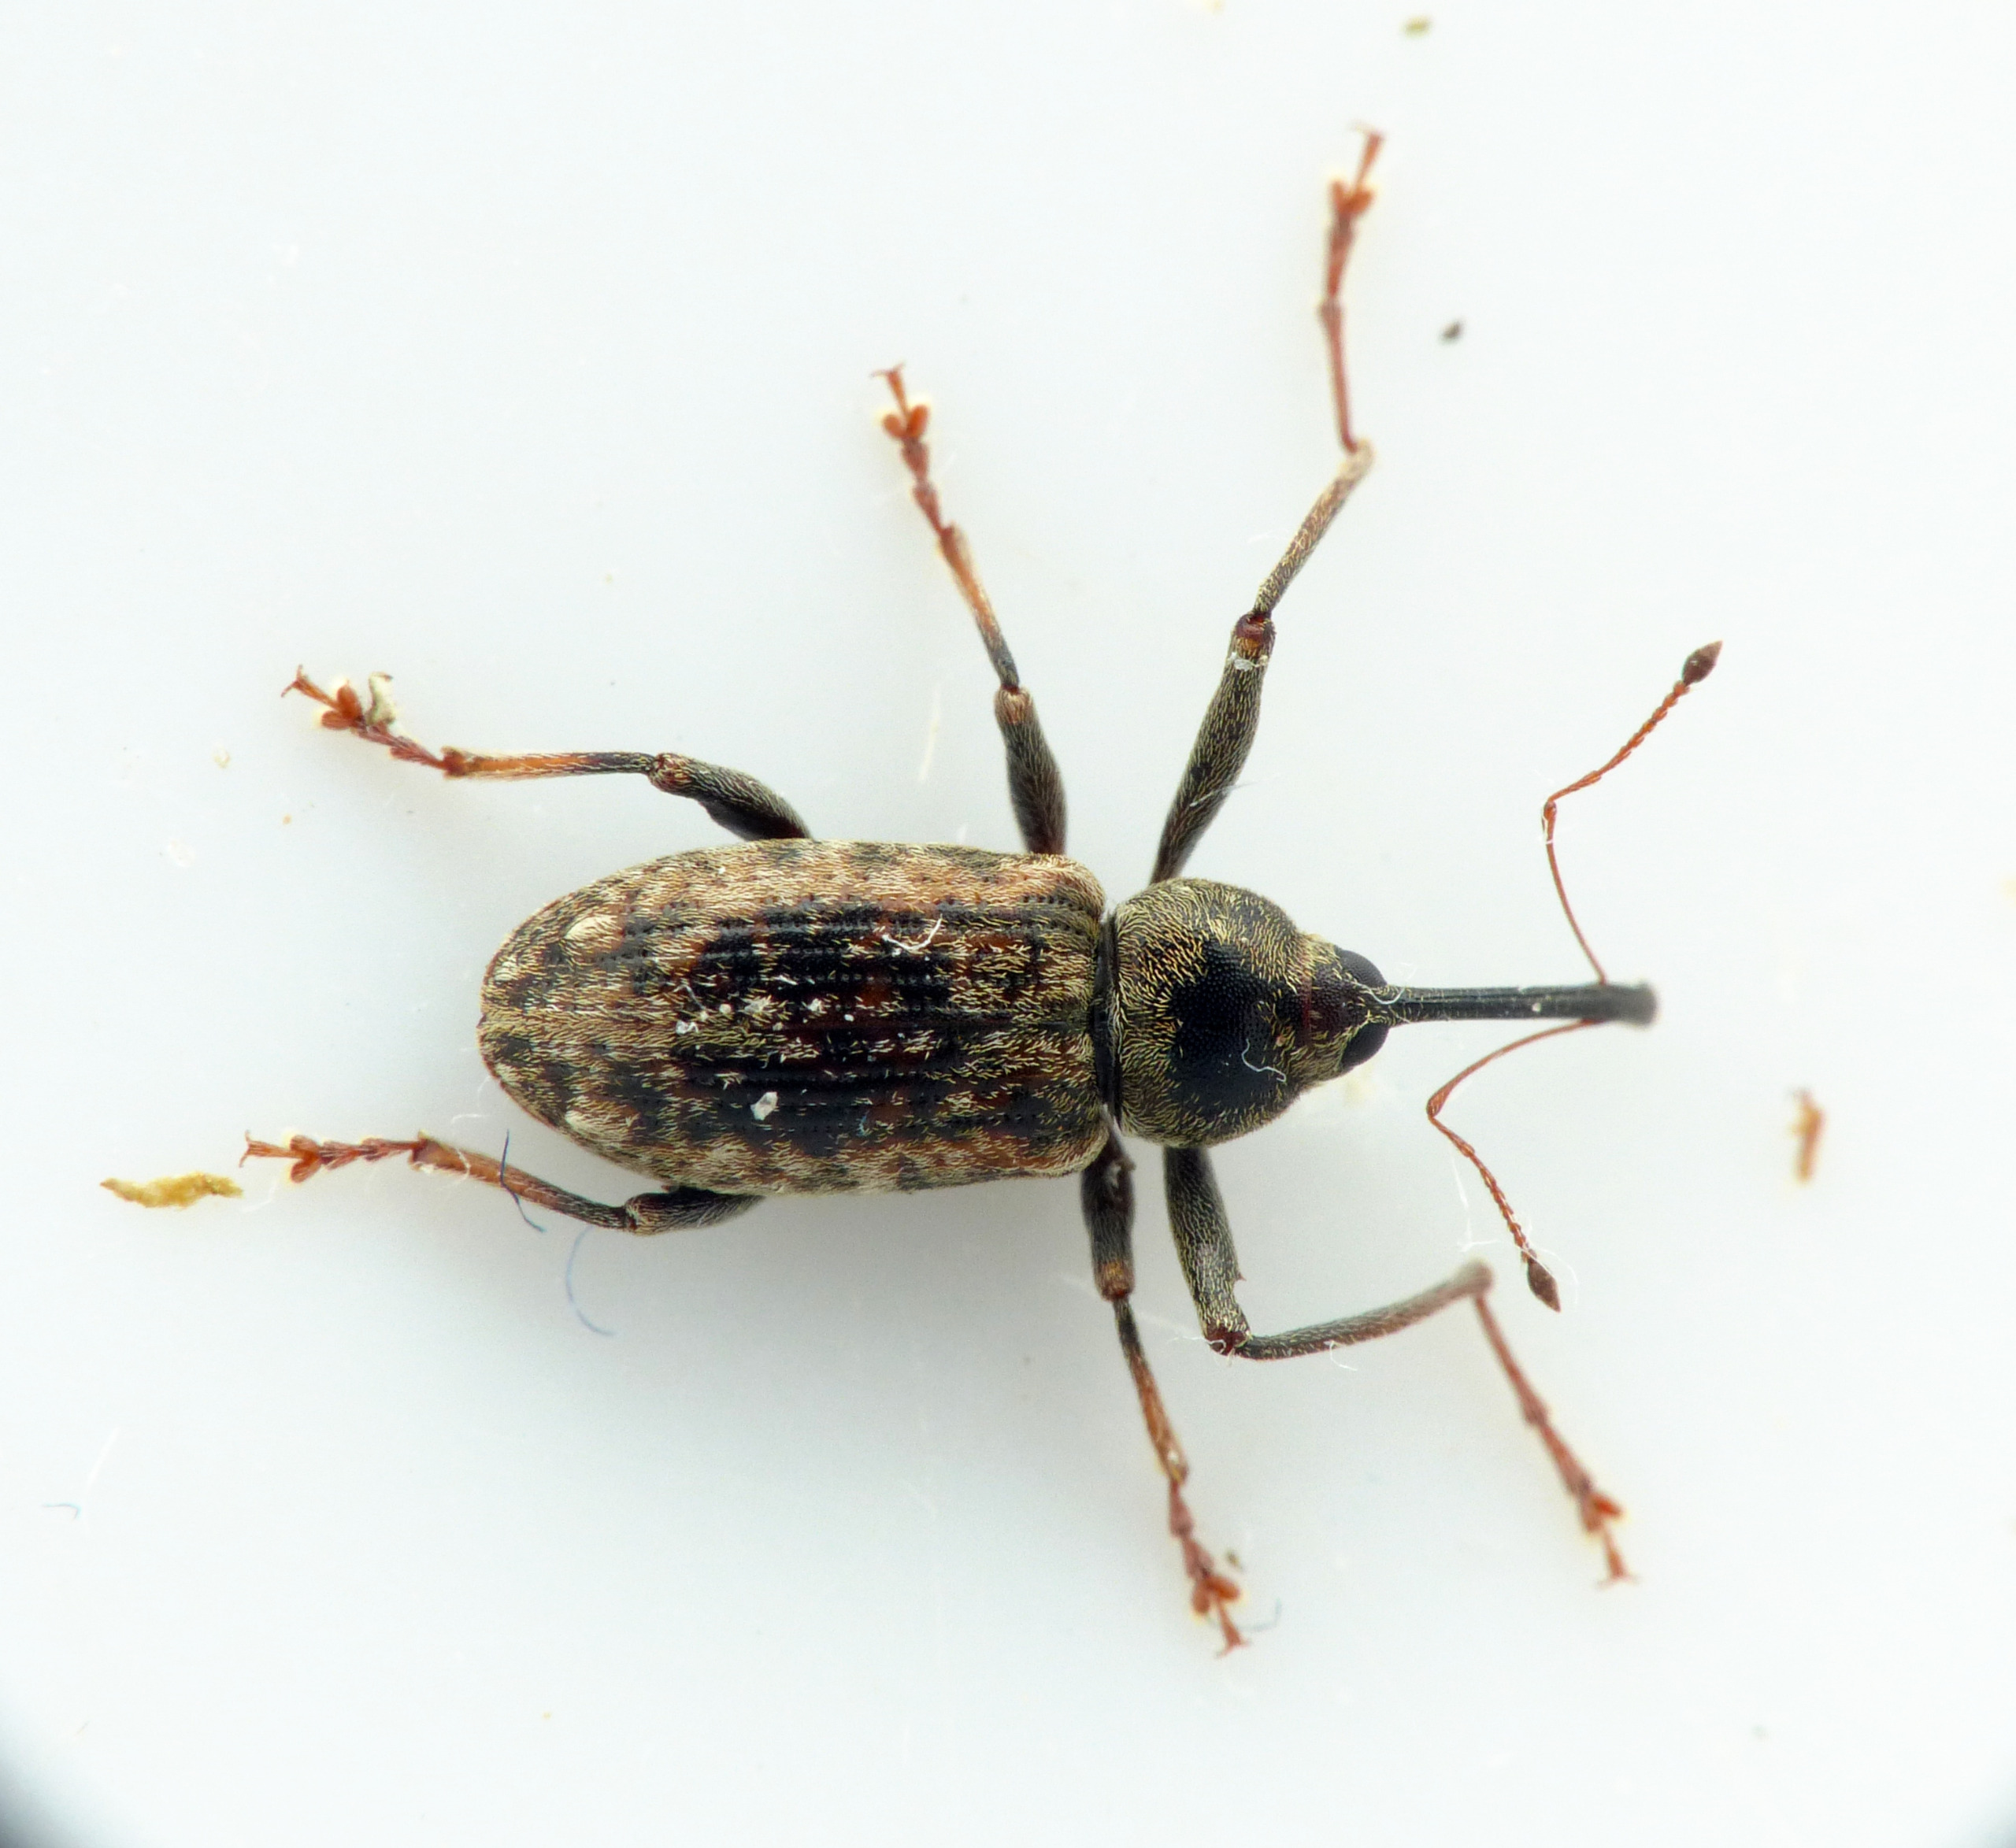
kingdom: Animalia
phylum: Arthropoda
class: Insecta
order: Coleoptera
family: Curculionidae
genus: Dorytomus
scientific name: Dorytomus longimanus
